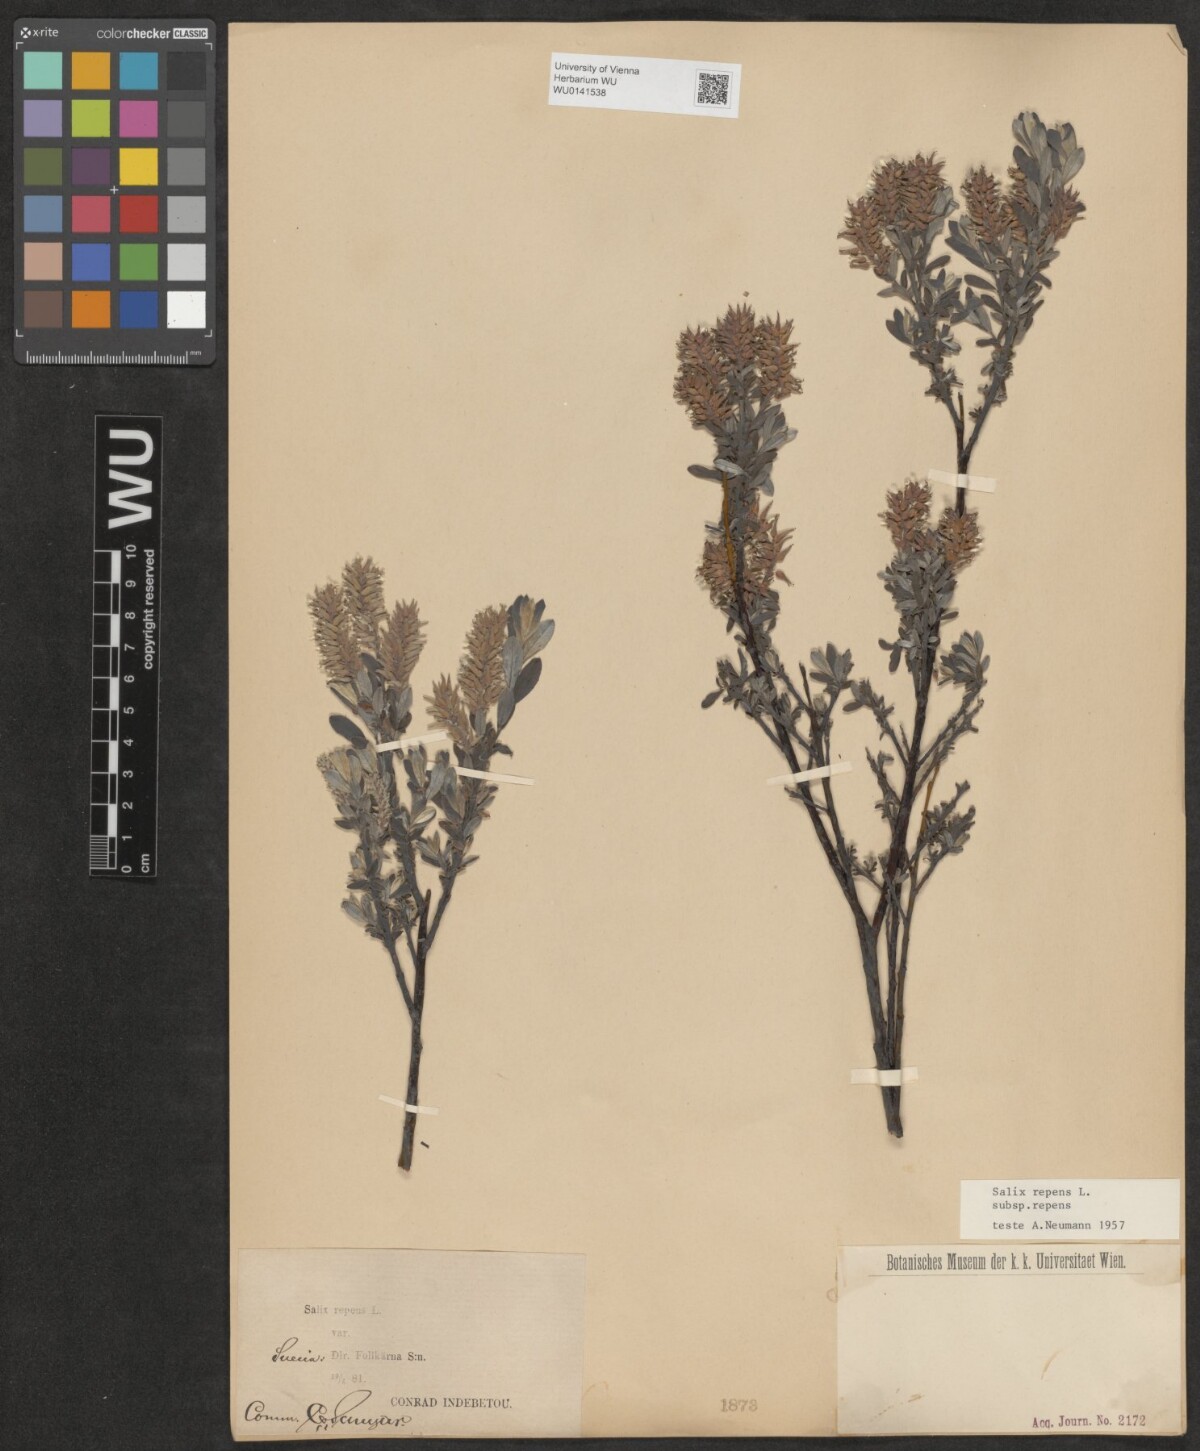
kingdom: Plantae
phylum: Tracheophyta
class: Magnoliopsida
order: Malpighiales
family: Salicaceae
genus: Salix
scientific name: Salix repens
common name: Creeping willow
